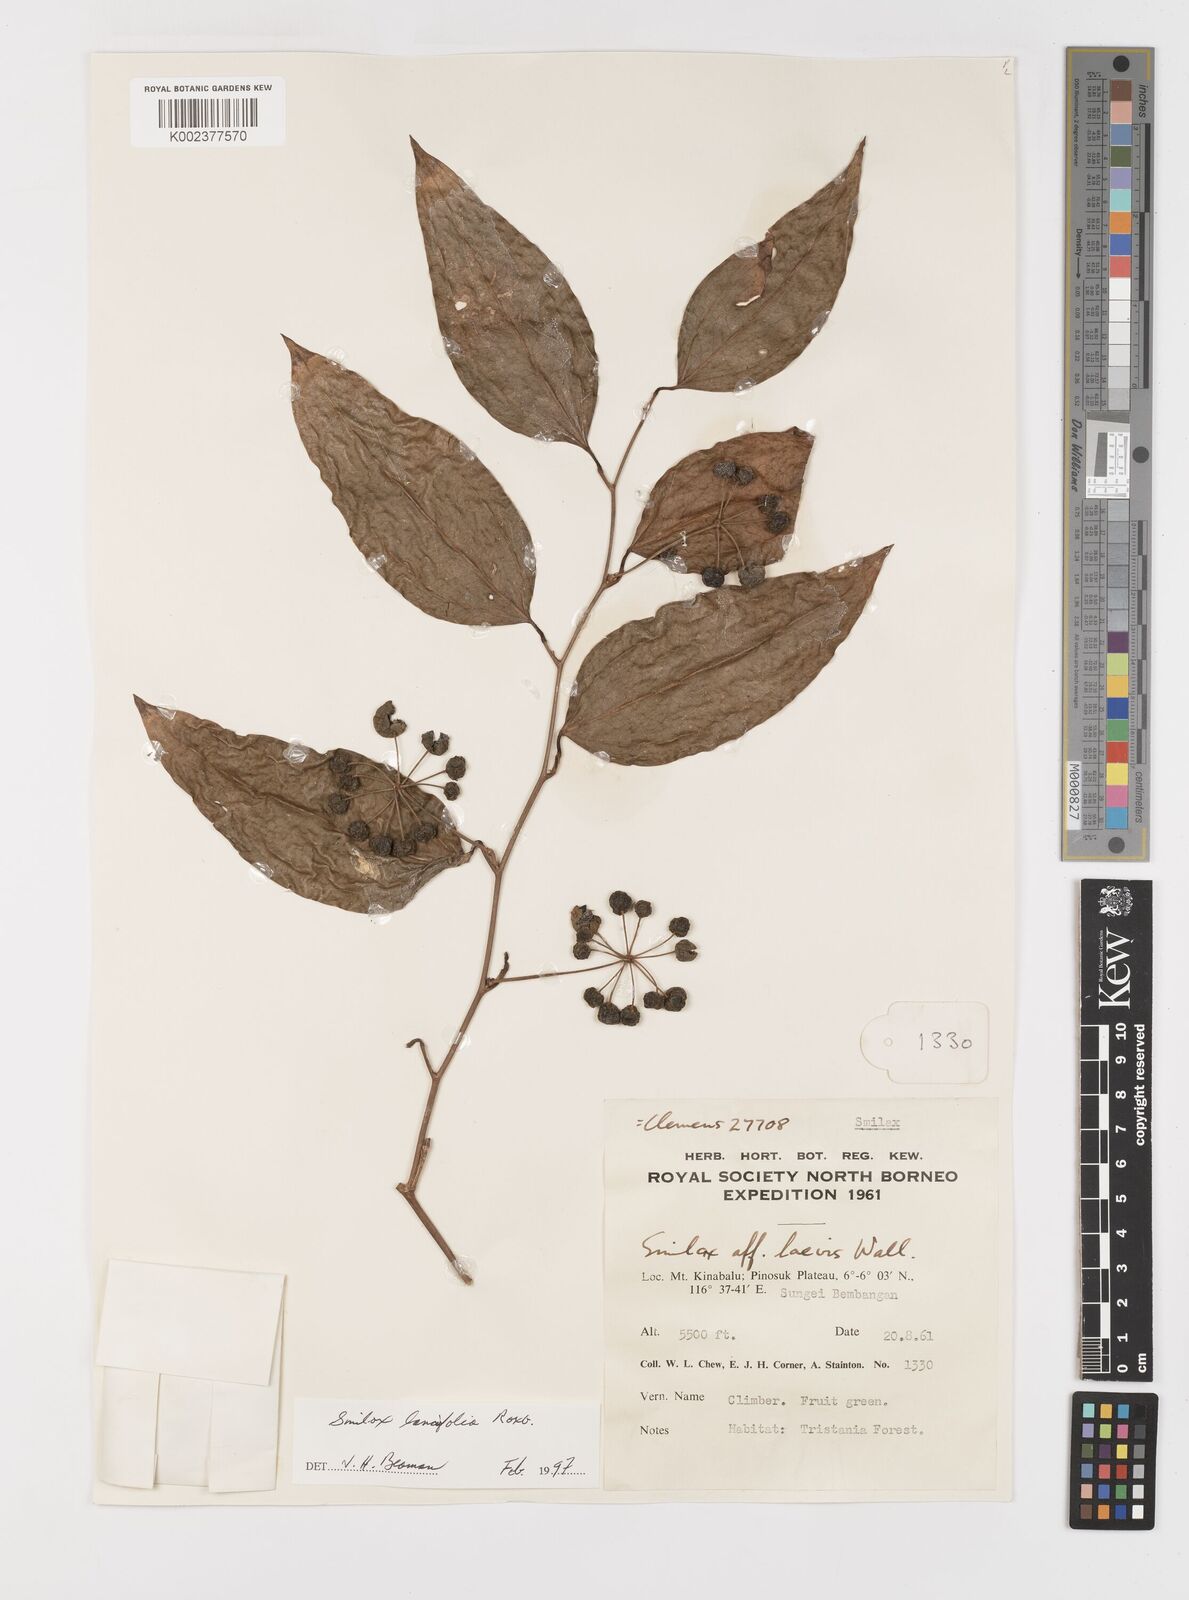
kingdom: Plantae
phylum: Tracheophyta
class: Liliopsida
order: Liliales
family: Smilacaceae
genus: Smilax
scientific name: Smilax lanceifolia
